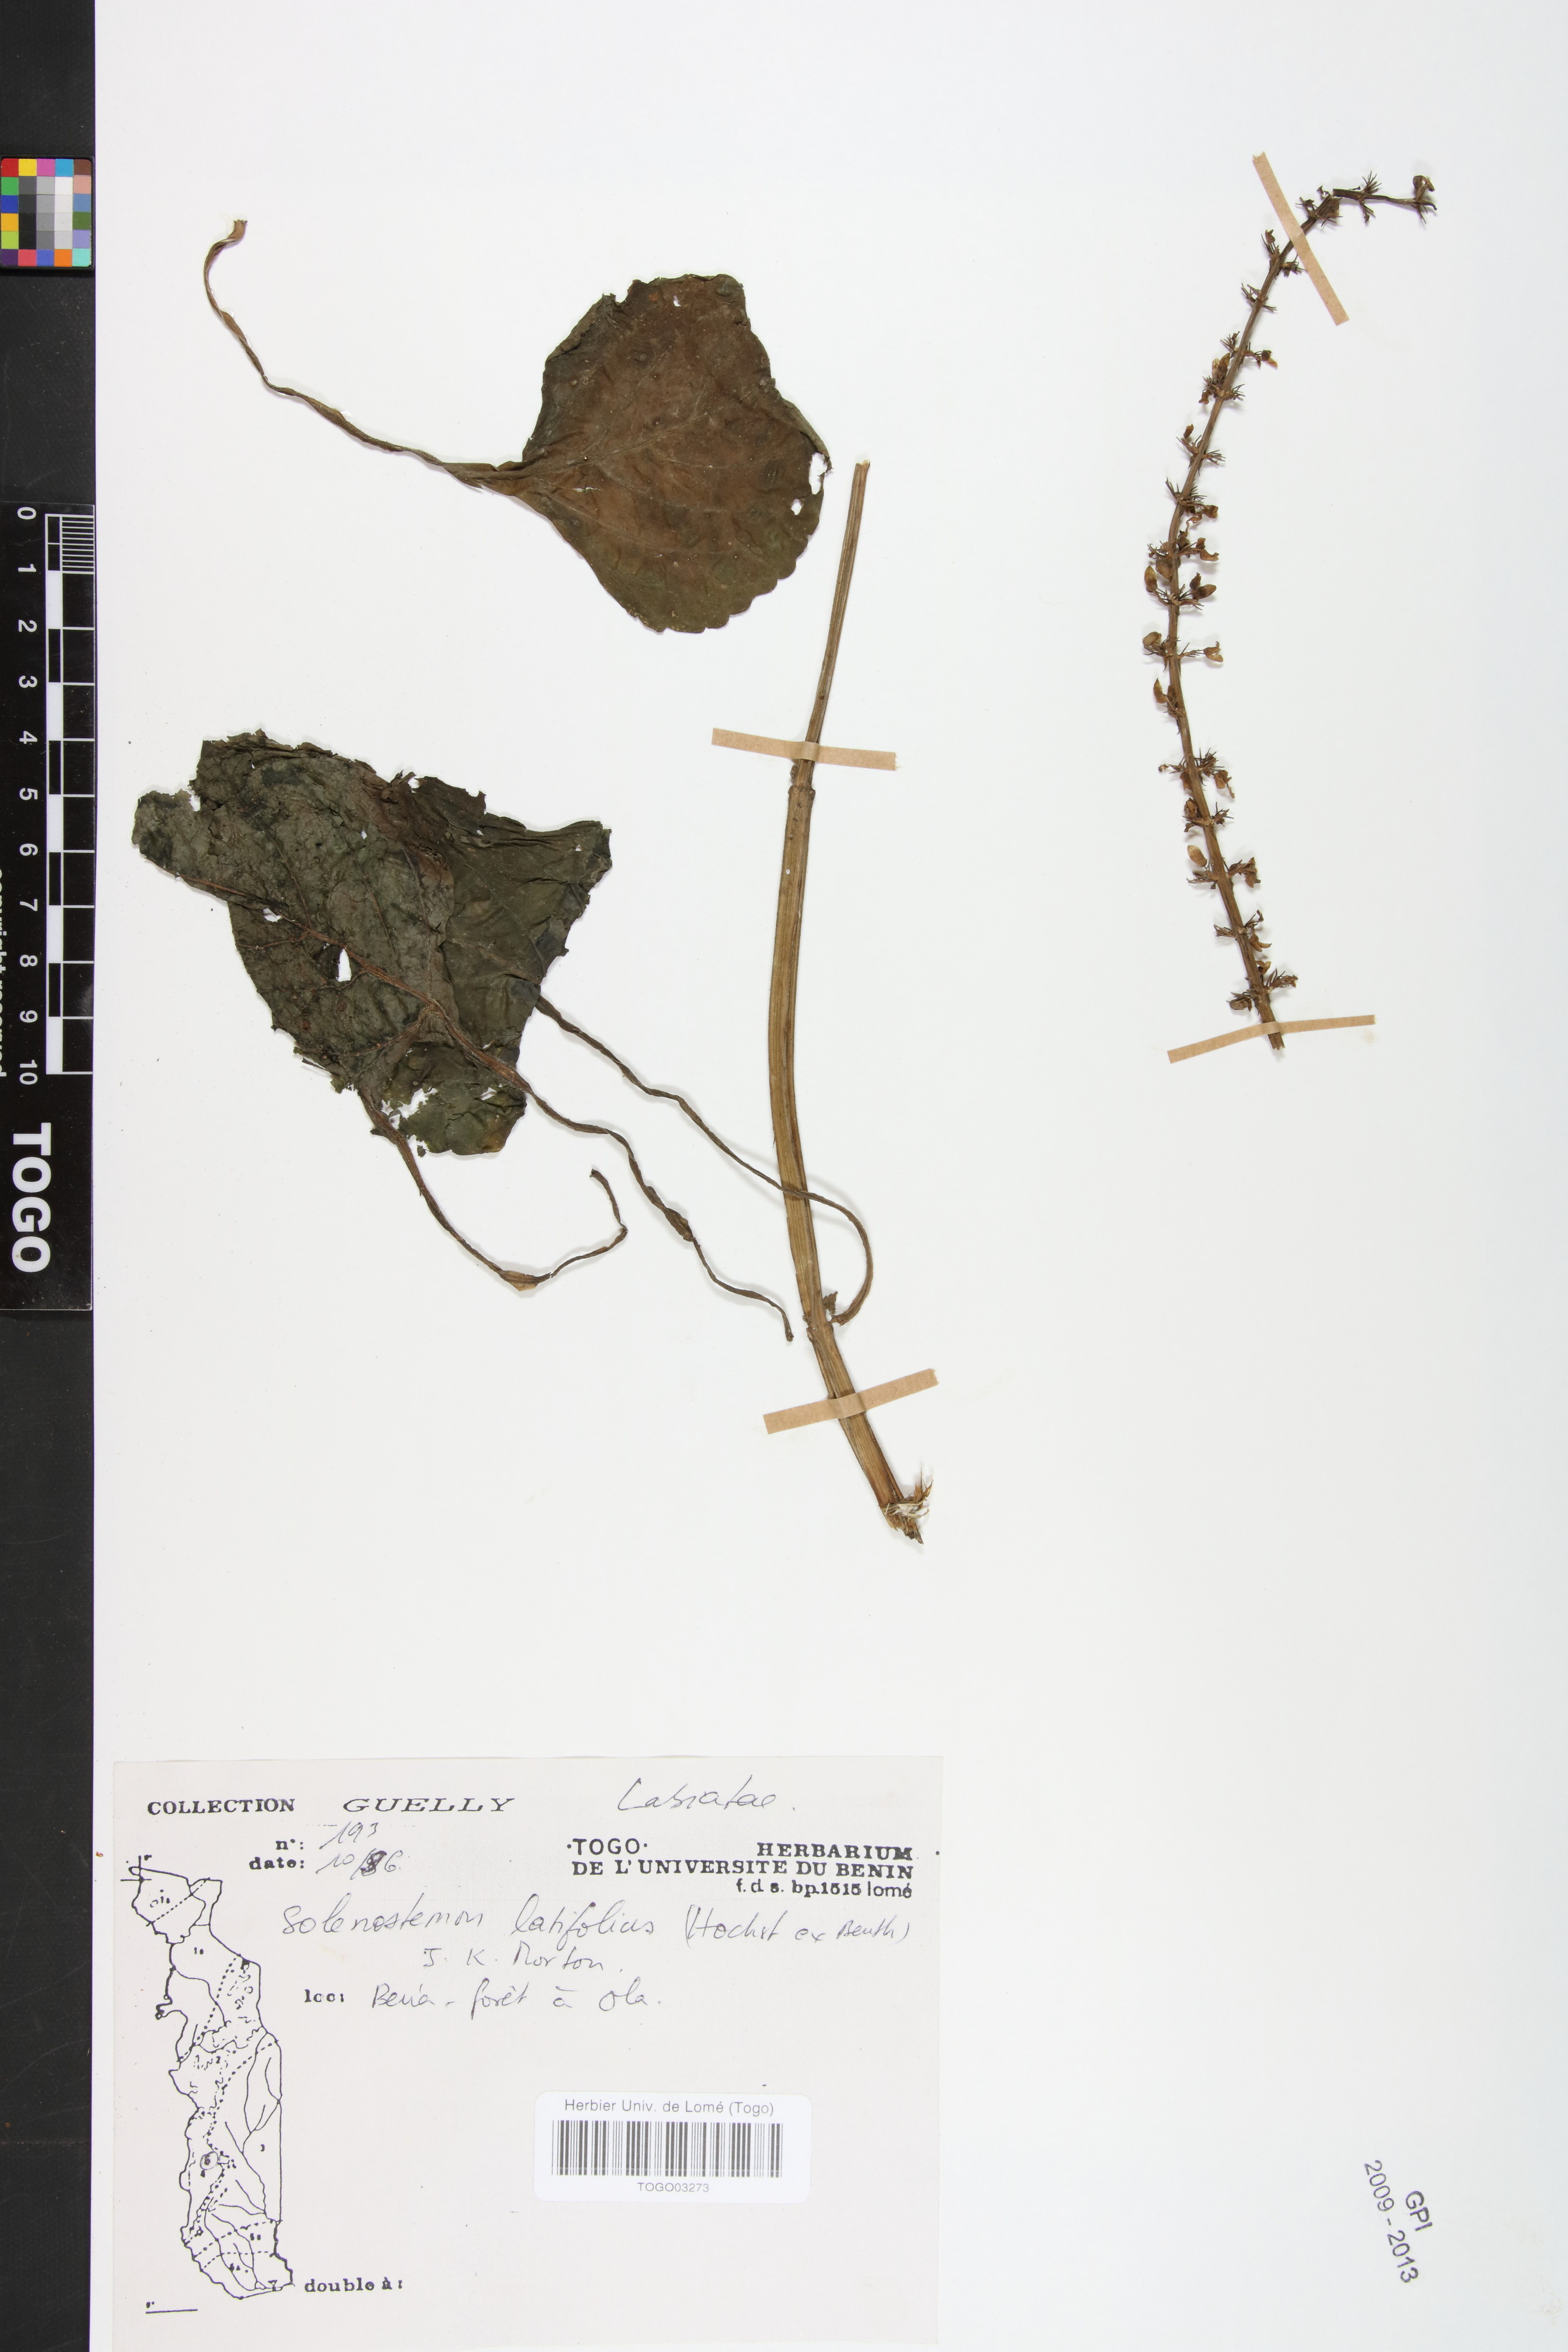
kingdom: Plantae
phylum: Tracheophyta
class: Magnoliopsida
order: Lamiales
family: Lamiaceae
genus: Coleus
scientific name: Coleus bojeri
